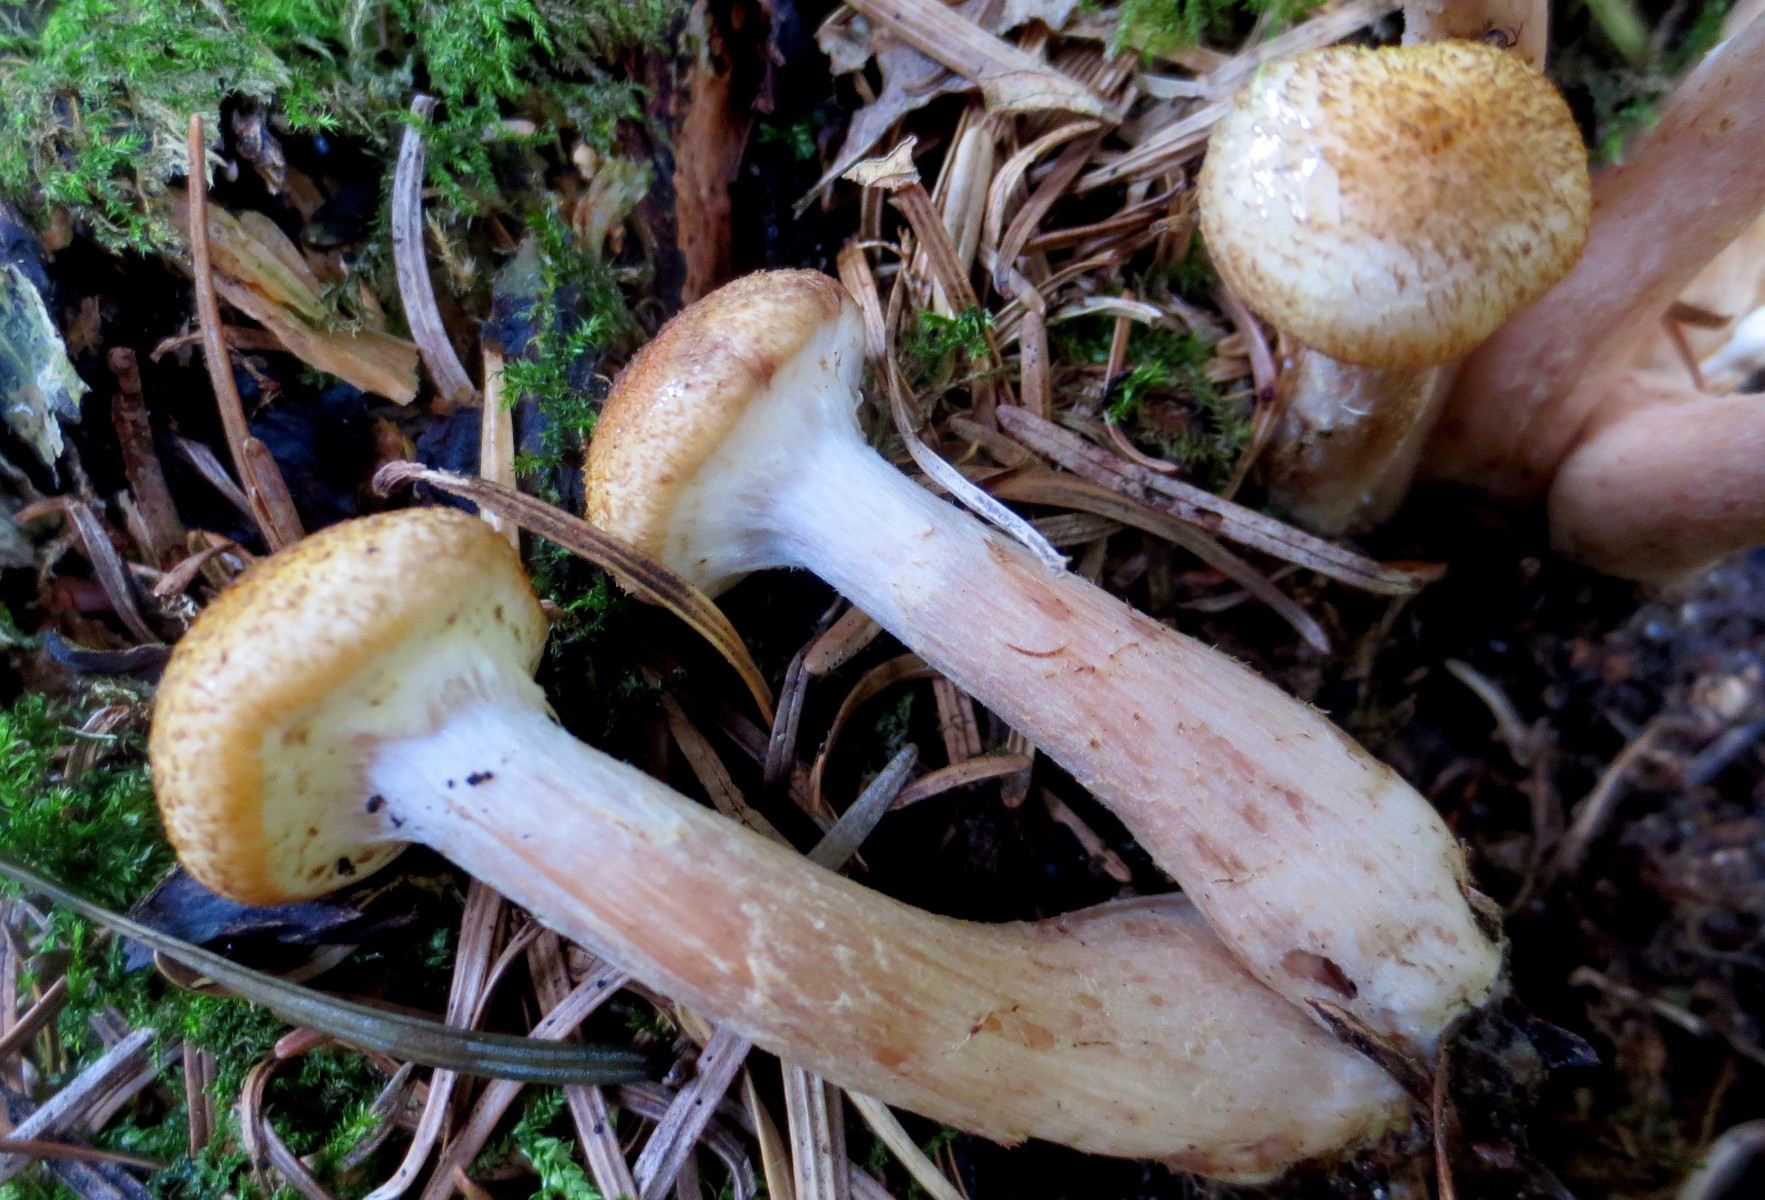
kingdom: Fungi
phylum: Basidiomycota
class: Agaricomycetes
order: Agaricales
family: Physalacriaceae
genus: Armillaria
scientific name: Armillaria borealis
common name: nordlig honningsvamp
